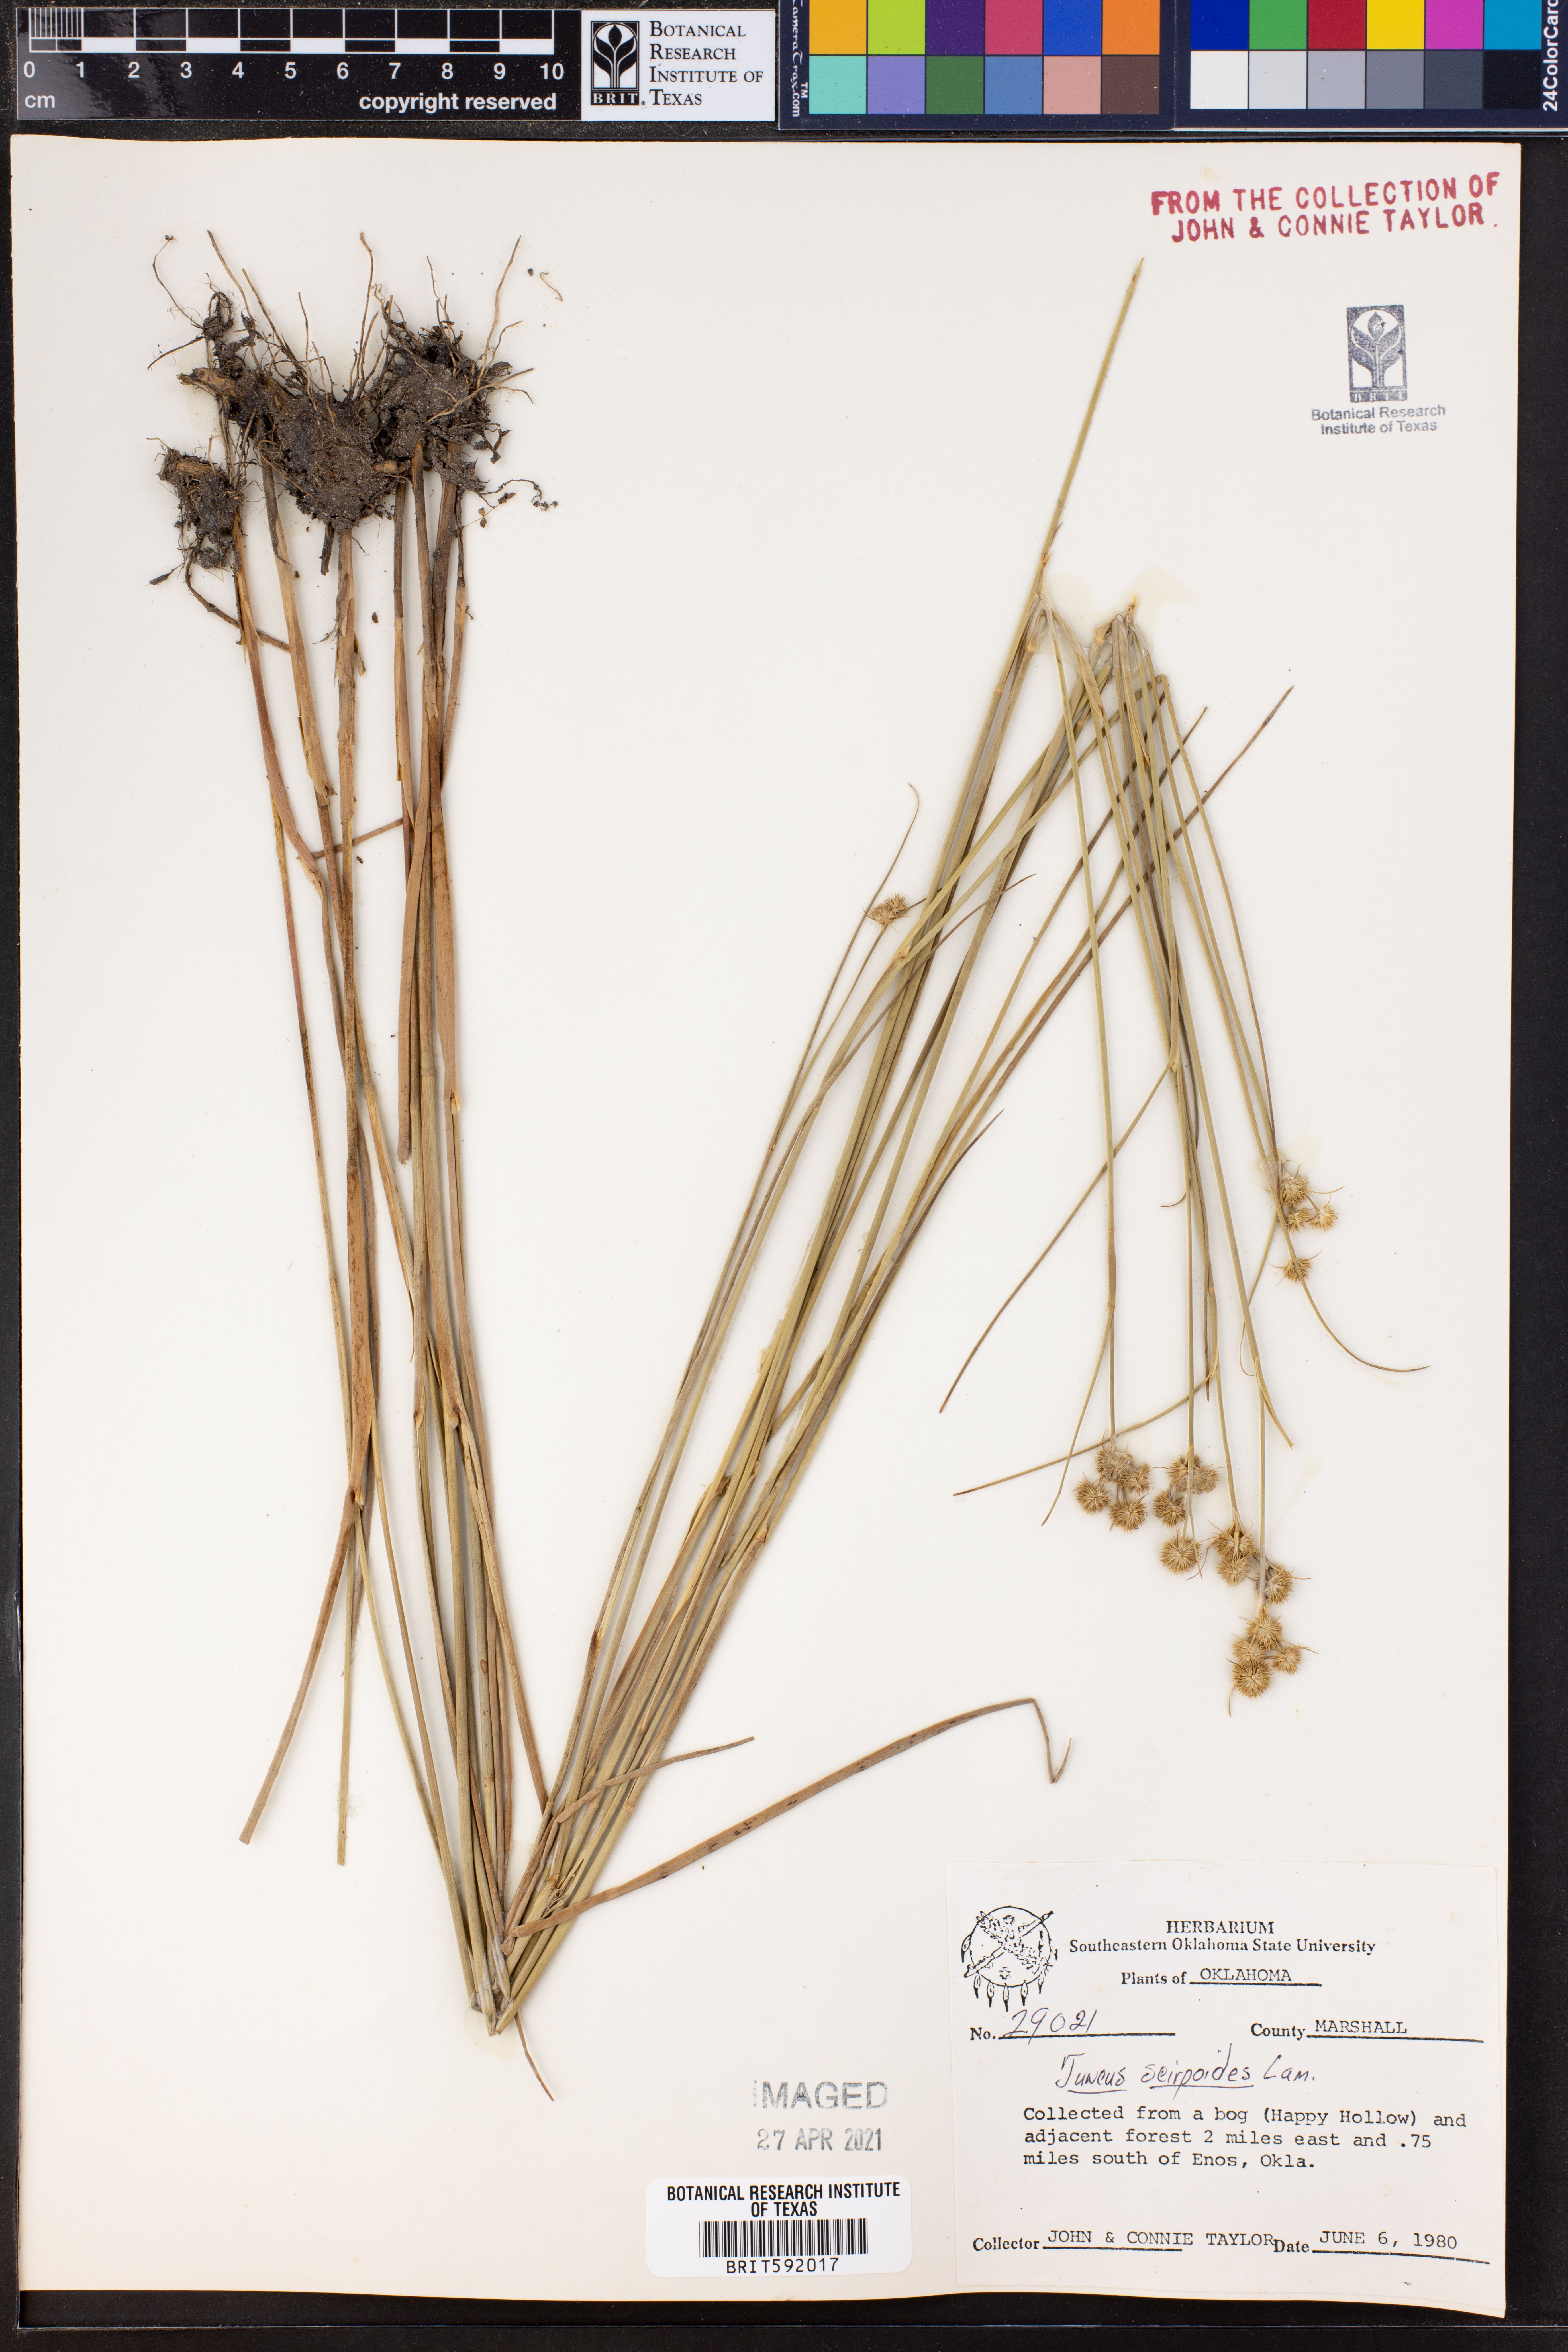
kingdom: Plantae
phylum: Tracheophyta
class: Liliopsida
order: Poales
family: Juncaceae
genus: Juncus
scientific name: Juncus scirpoides
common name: Needlepod rush
